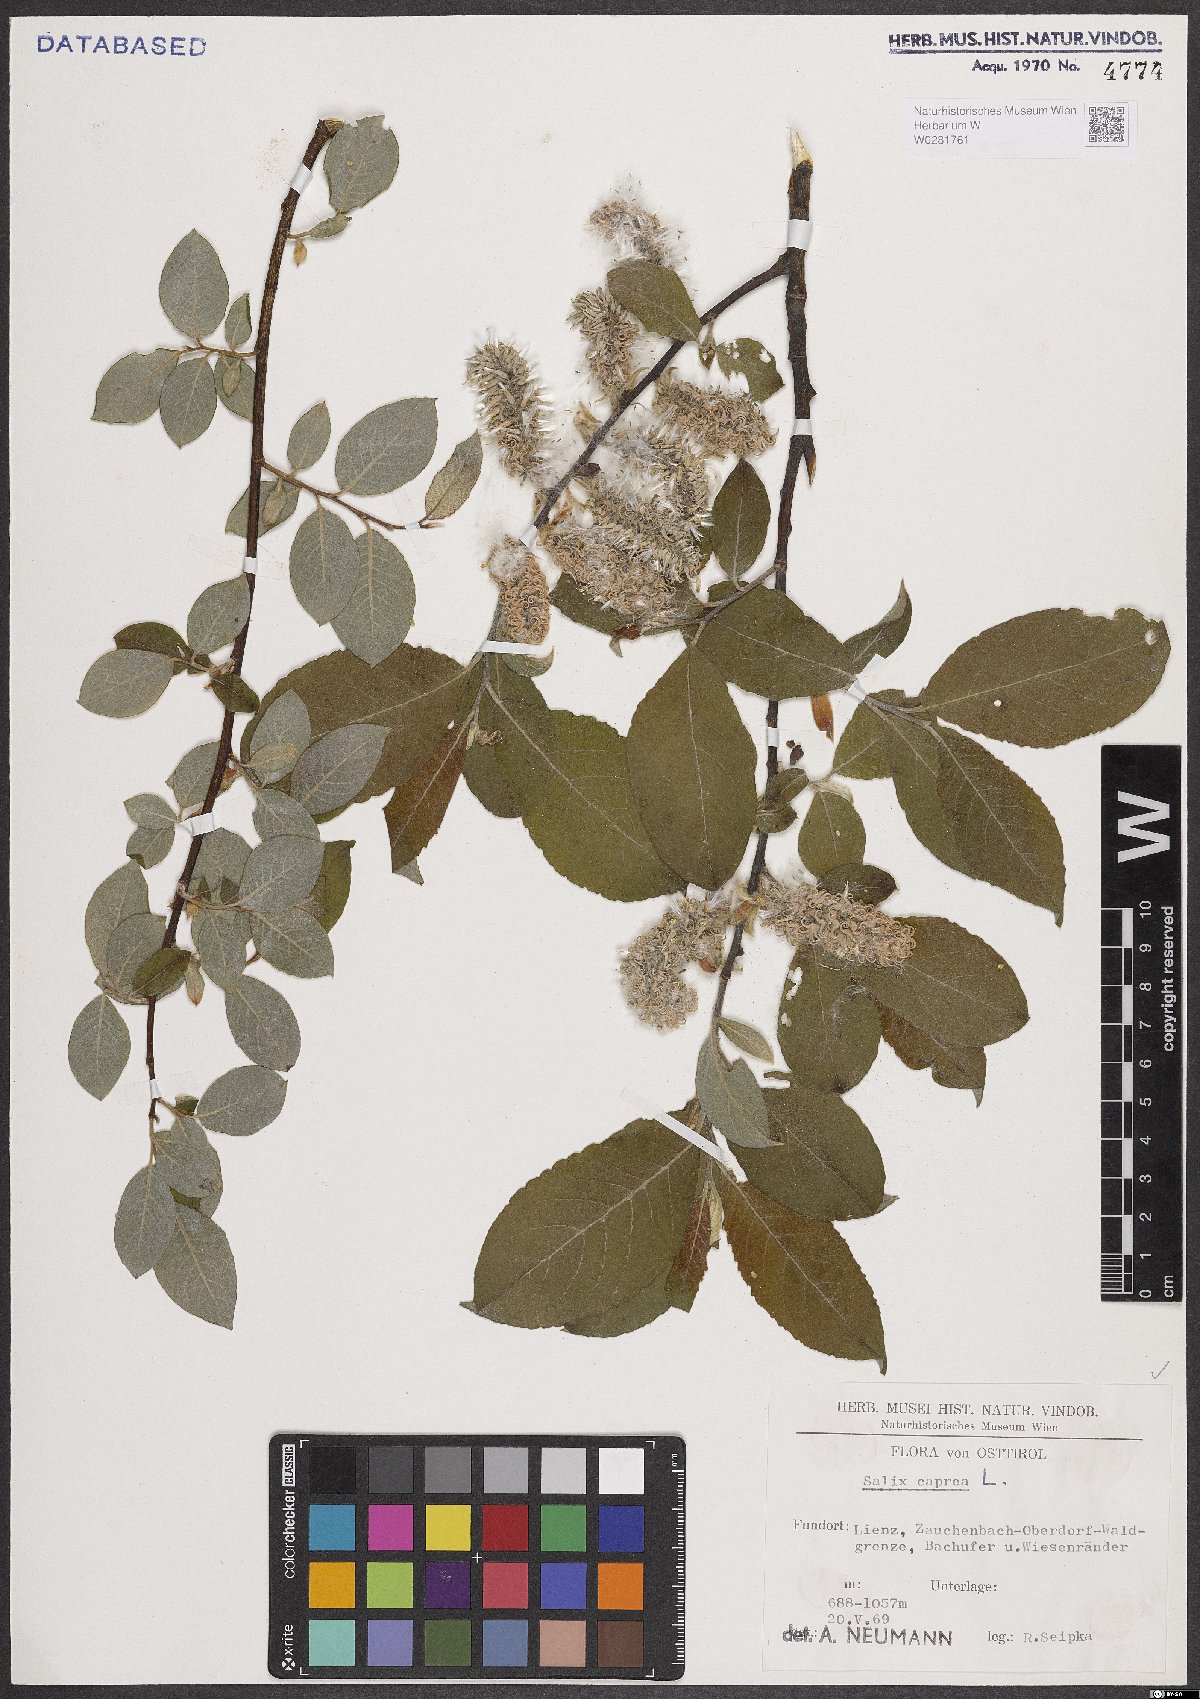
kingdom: Plantae
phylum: Tracheophyta
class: Magnoliopsida
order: Malpighiales
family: Salicaceae
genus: Salix
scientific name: Salix caprea
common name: Goat willow
